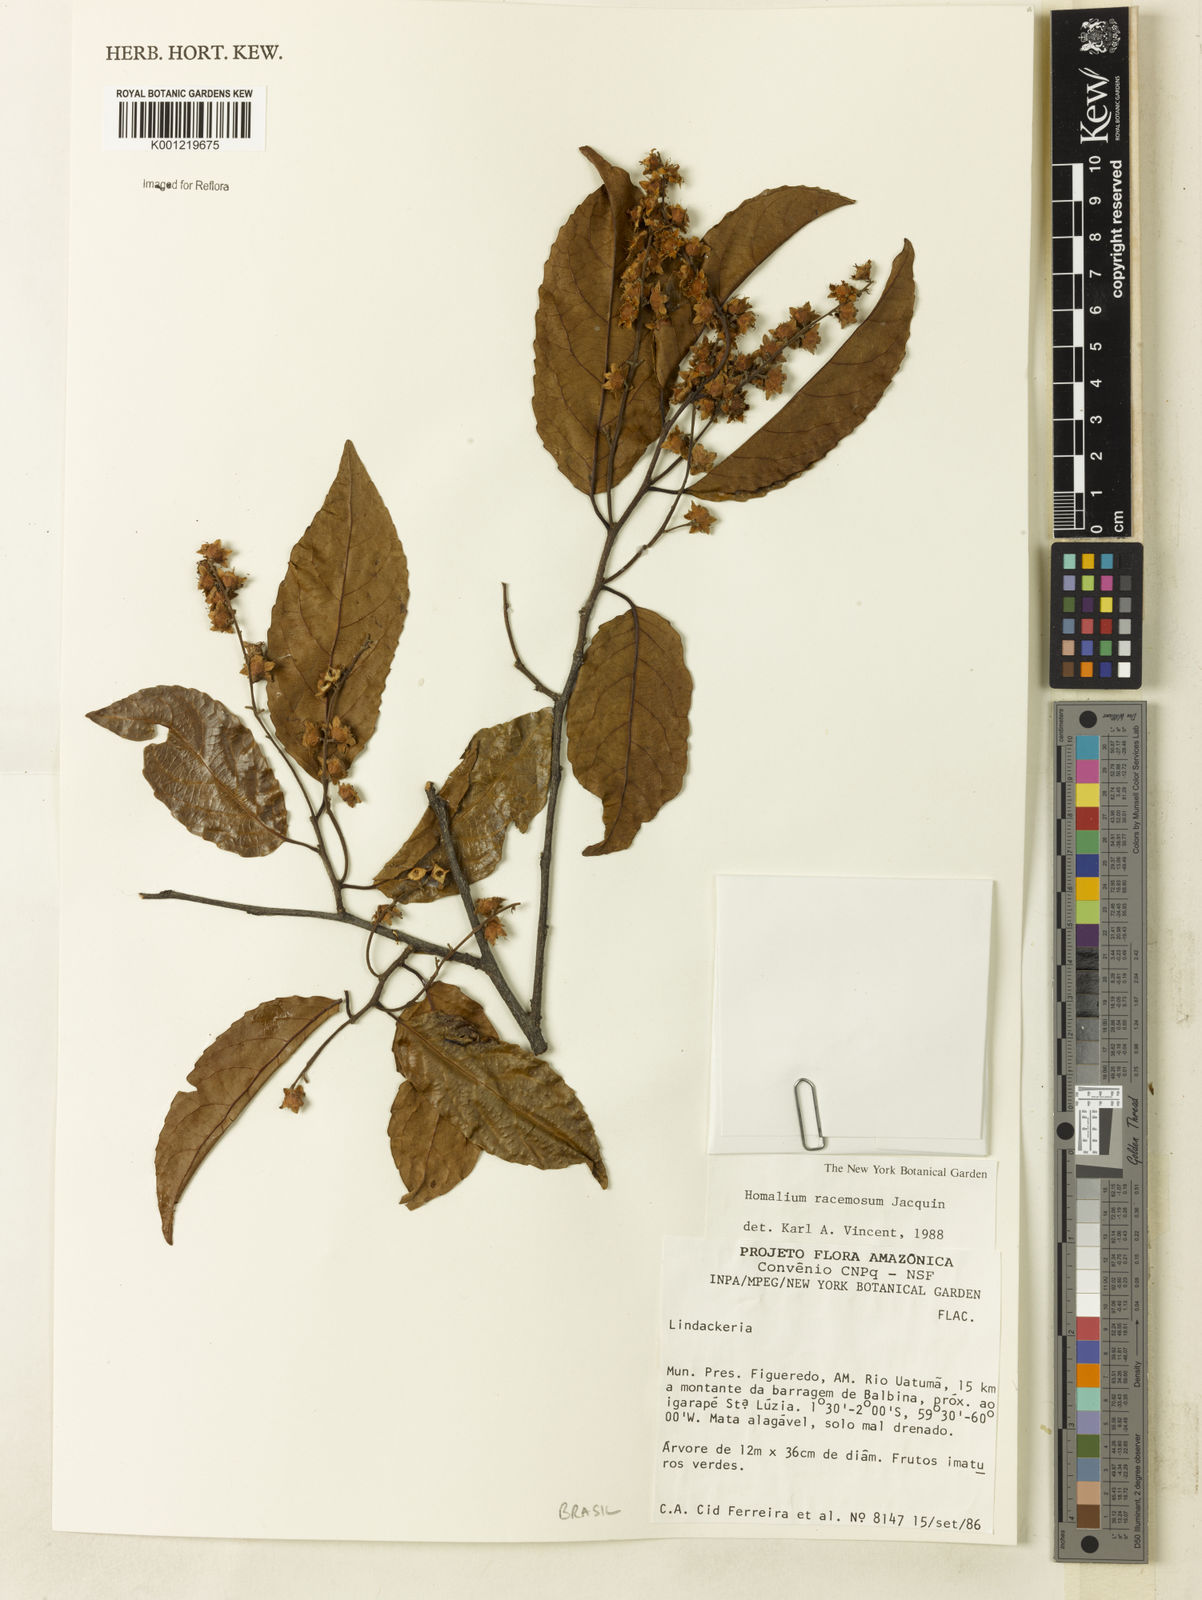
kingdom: Plantae
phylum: Tracheophyta
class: Magnoliopsida
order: Malpighiales
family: Salicaceae
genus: Homalium
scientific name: Homalium racemosum
